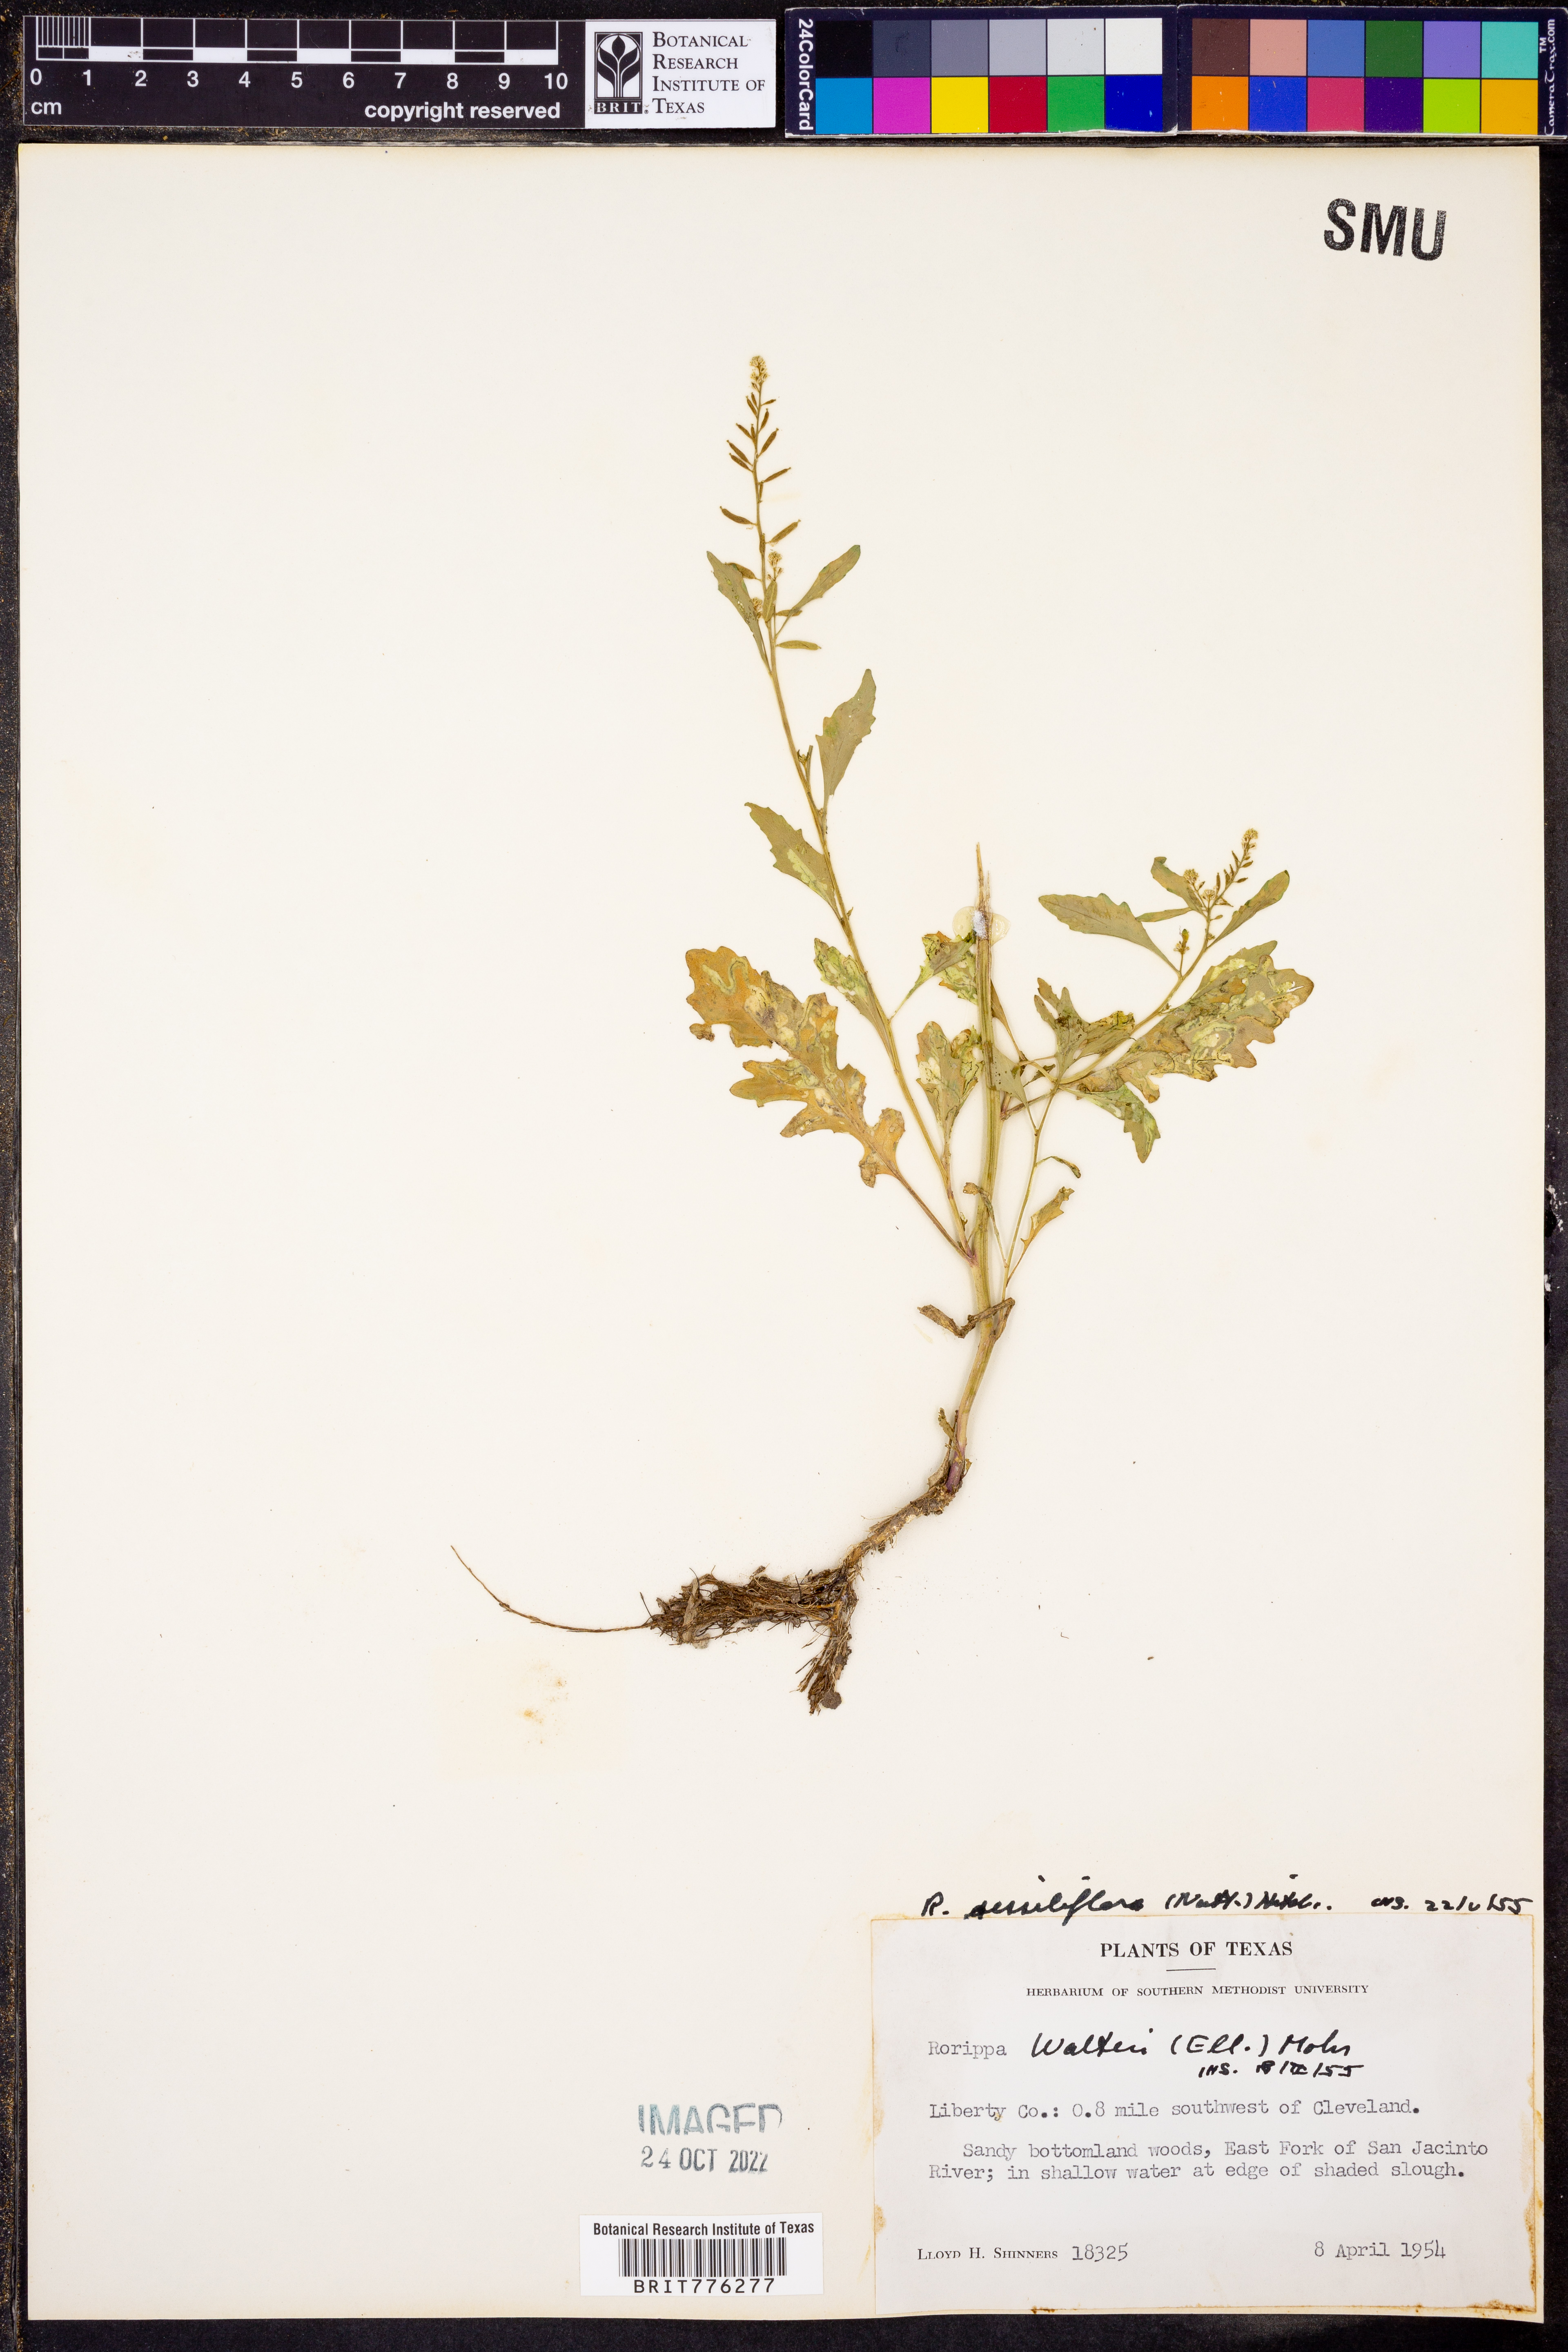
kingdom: Plantae
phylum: Tracheophyta
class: Magnoliopsida
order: Brassicales
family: Brassicaceae
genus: Rorippa
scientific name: Rorippa sessiliflora
